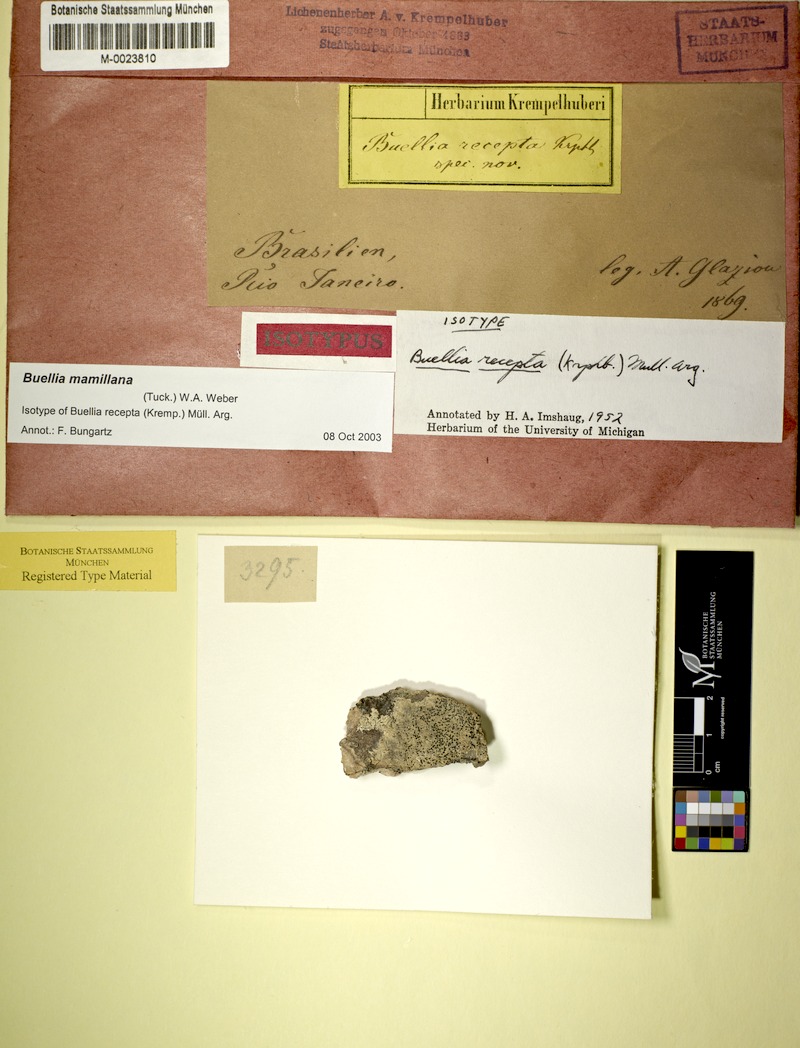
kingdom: Fungi
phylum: Ascomycota
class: Lecanoromycetes
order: Caliciales
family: Caliciaceae
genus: Buellia
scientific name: Buellia mamillana
